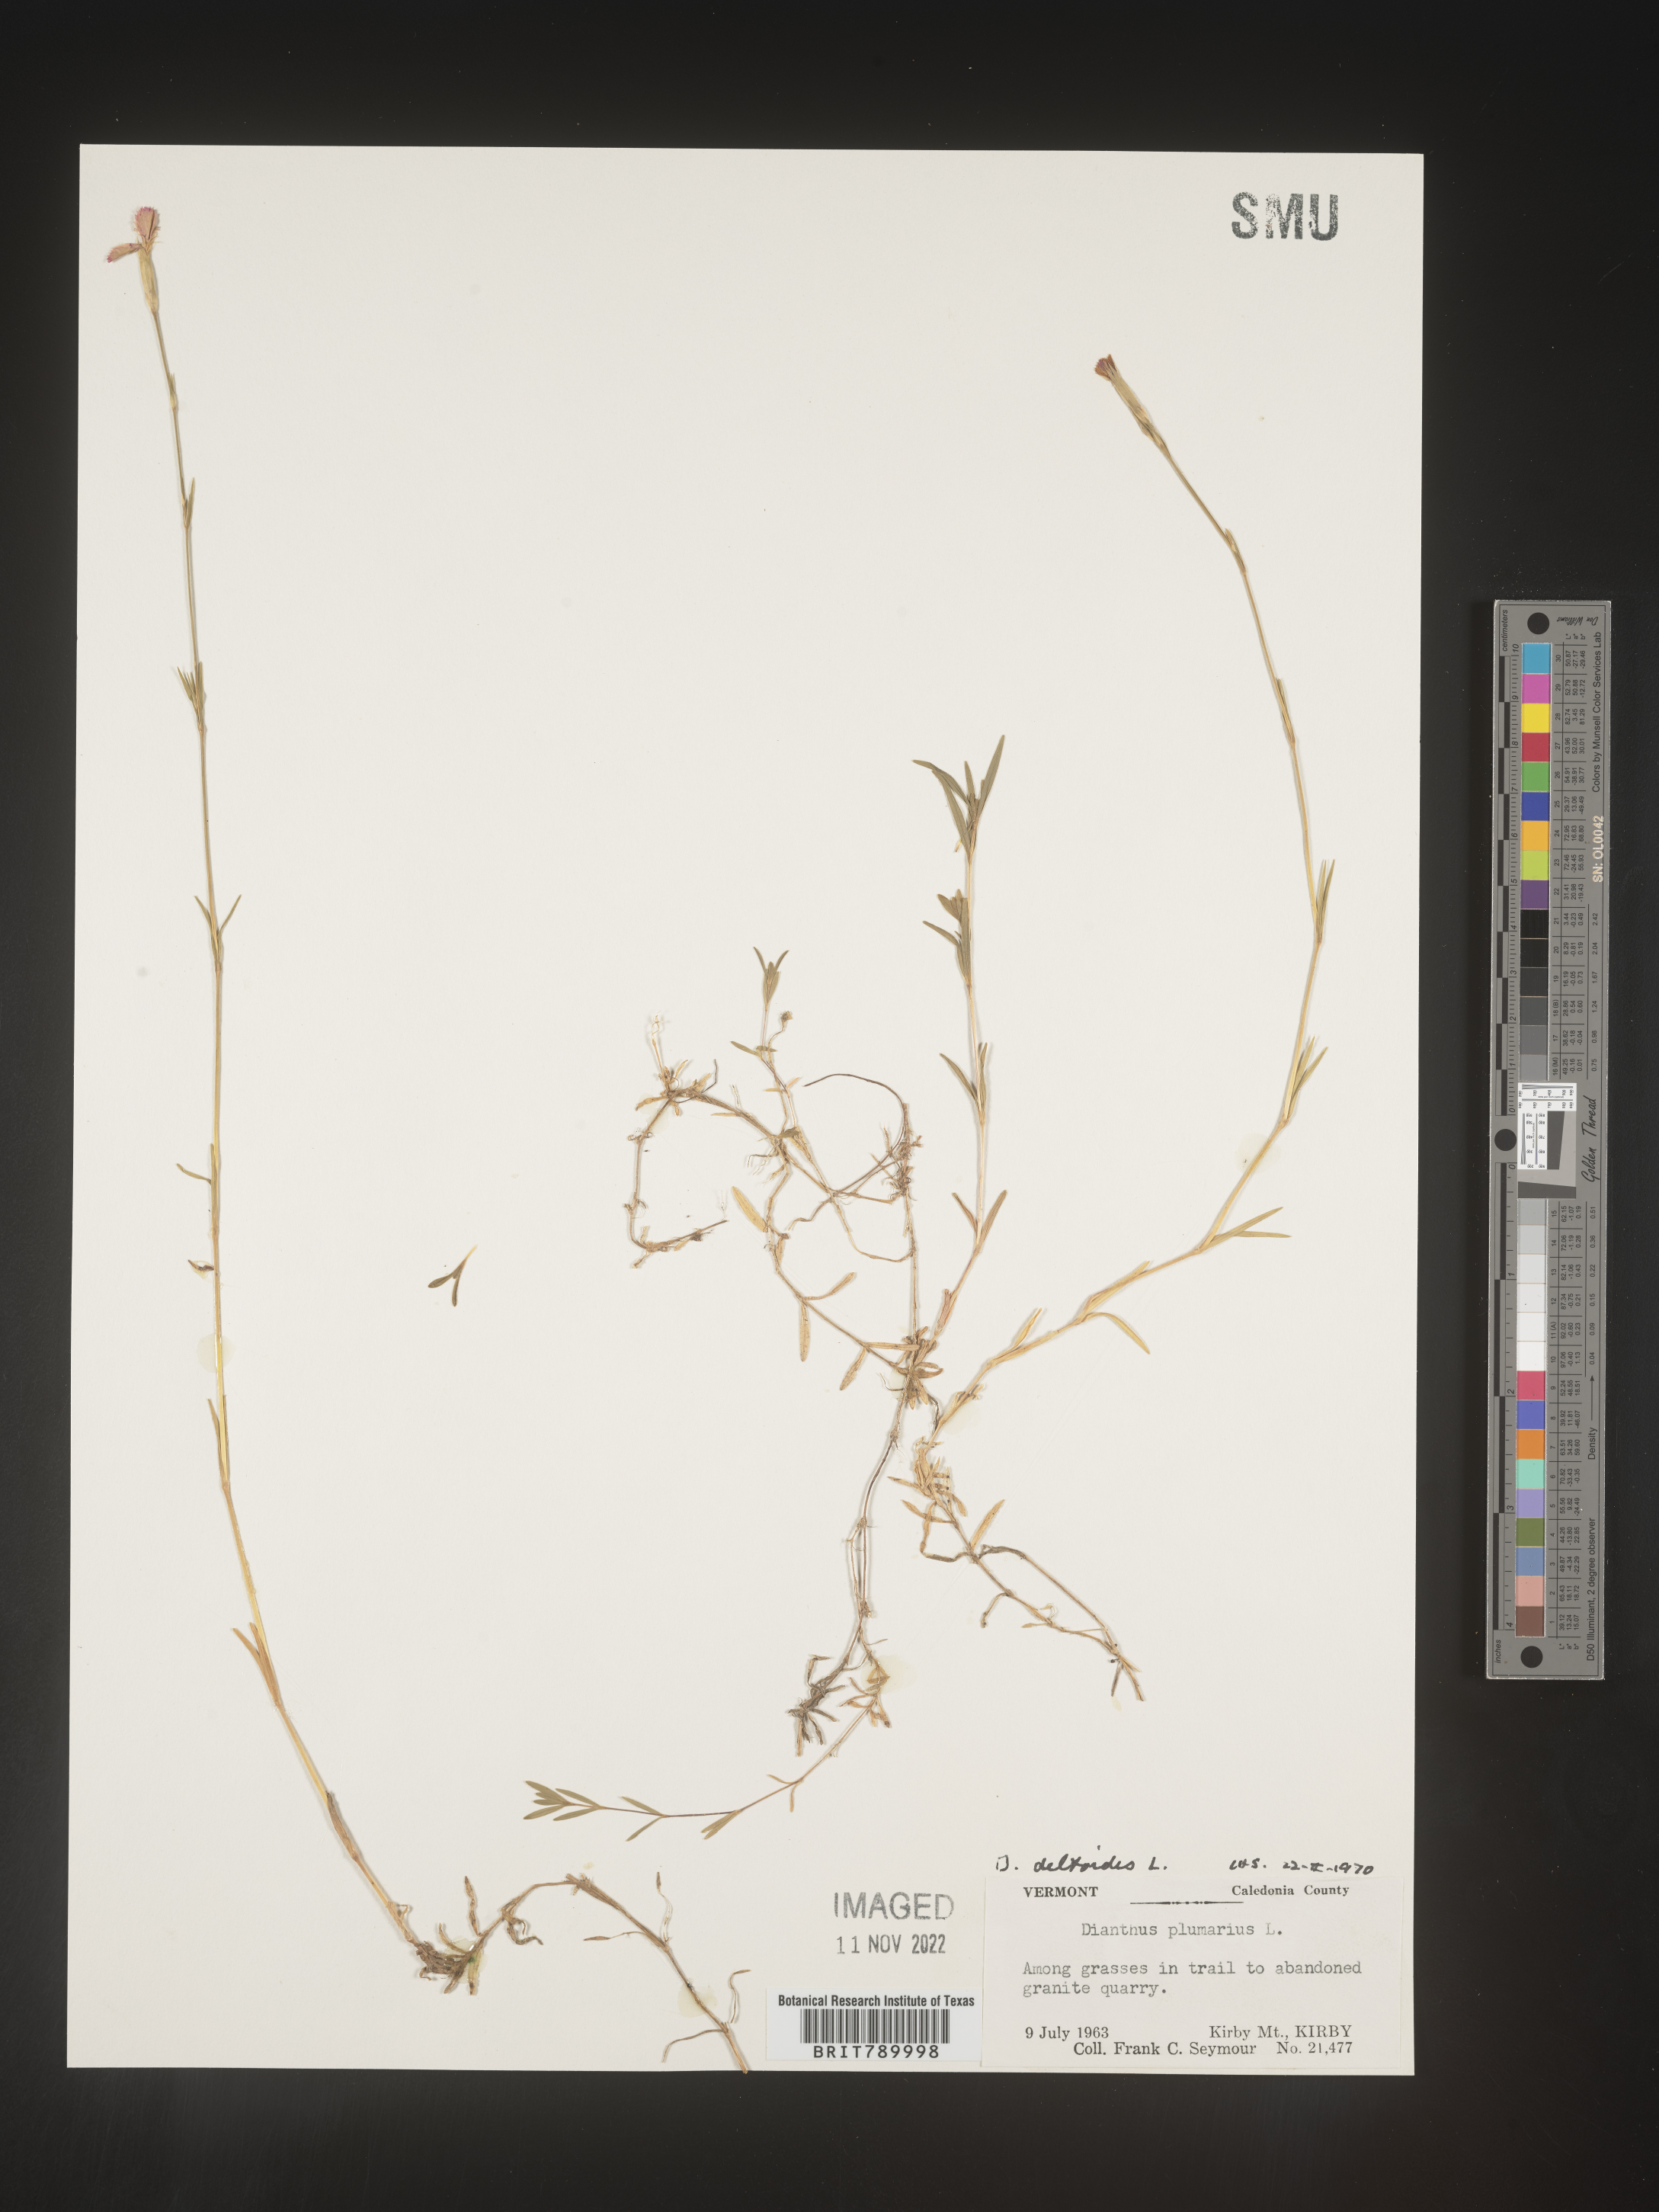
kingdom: Plantae
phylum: Tracheophyta
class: Magnoliopsida
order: Caryophyllales
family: Caryophyllaceae
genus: Dianthus
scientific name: Dianthus deltoides
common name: Maiden pink
